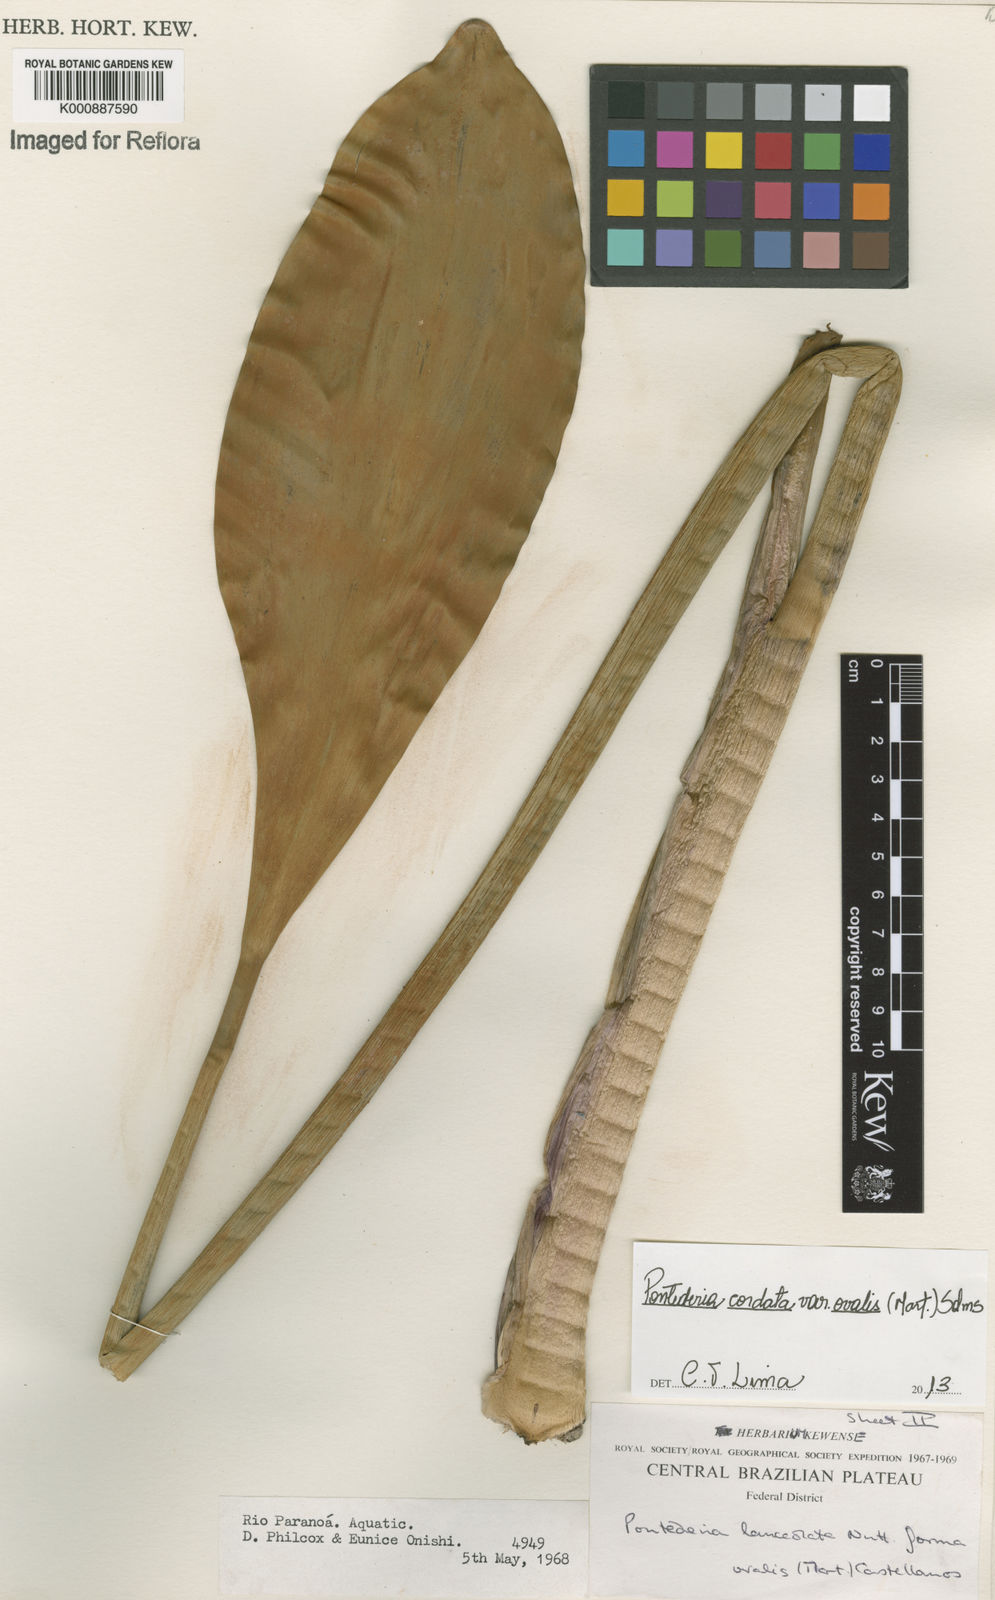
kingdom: Plantae
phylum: Tracheophyta
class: Liliopsida
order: Commelinales
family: Pontederiaceae
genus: Pontederia
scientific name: Pontederia cordata
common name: Pickerelweed
